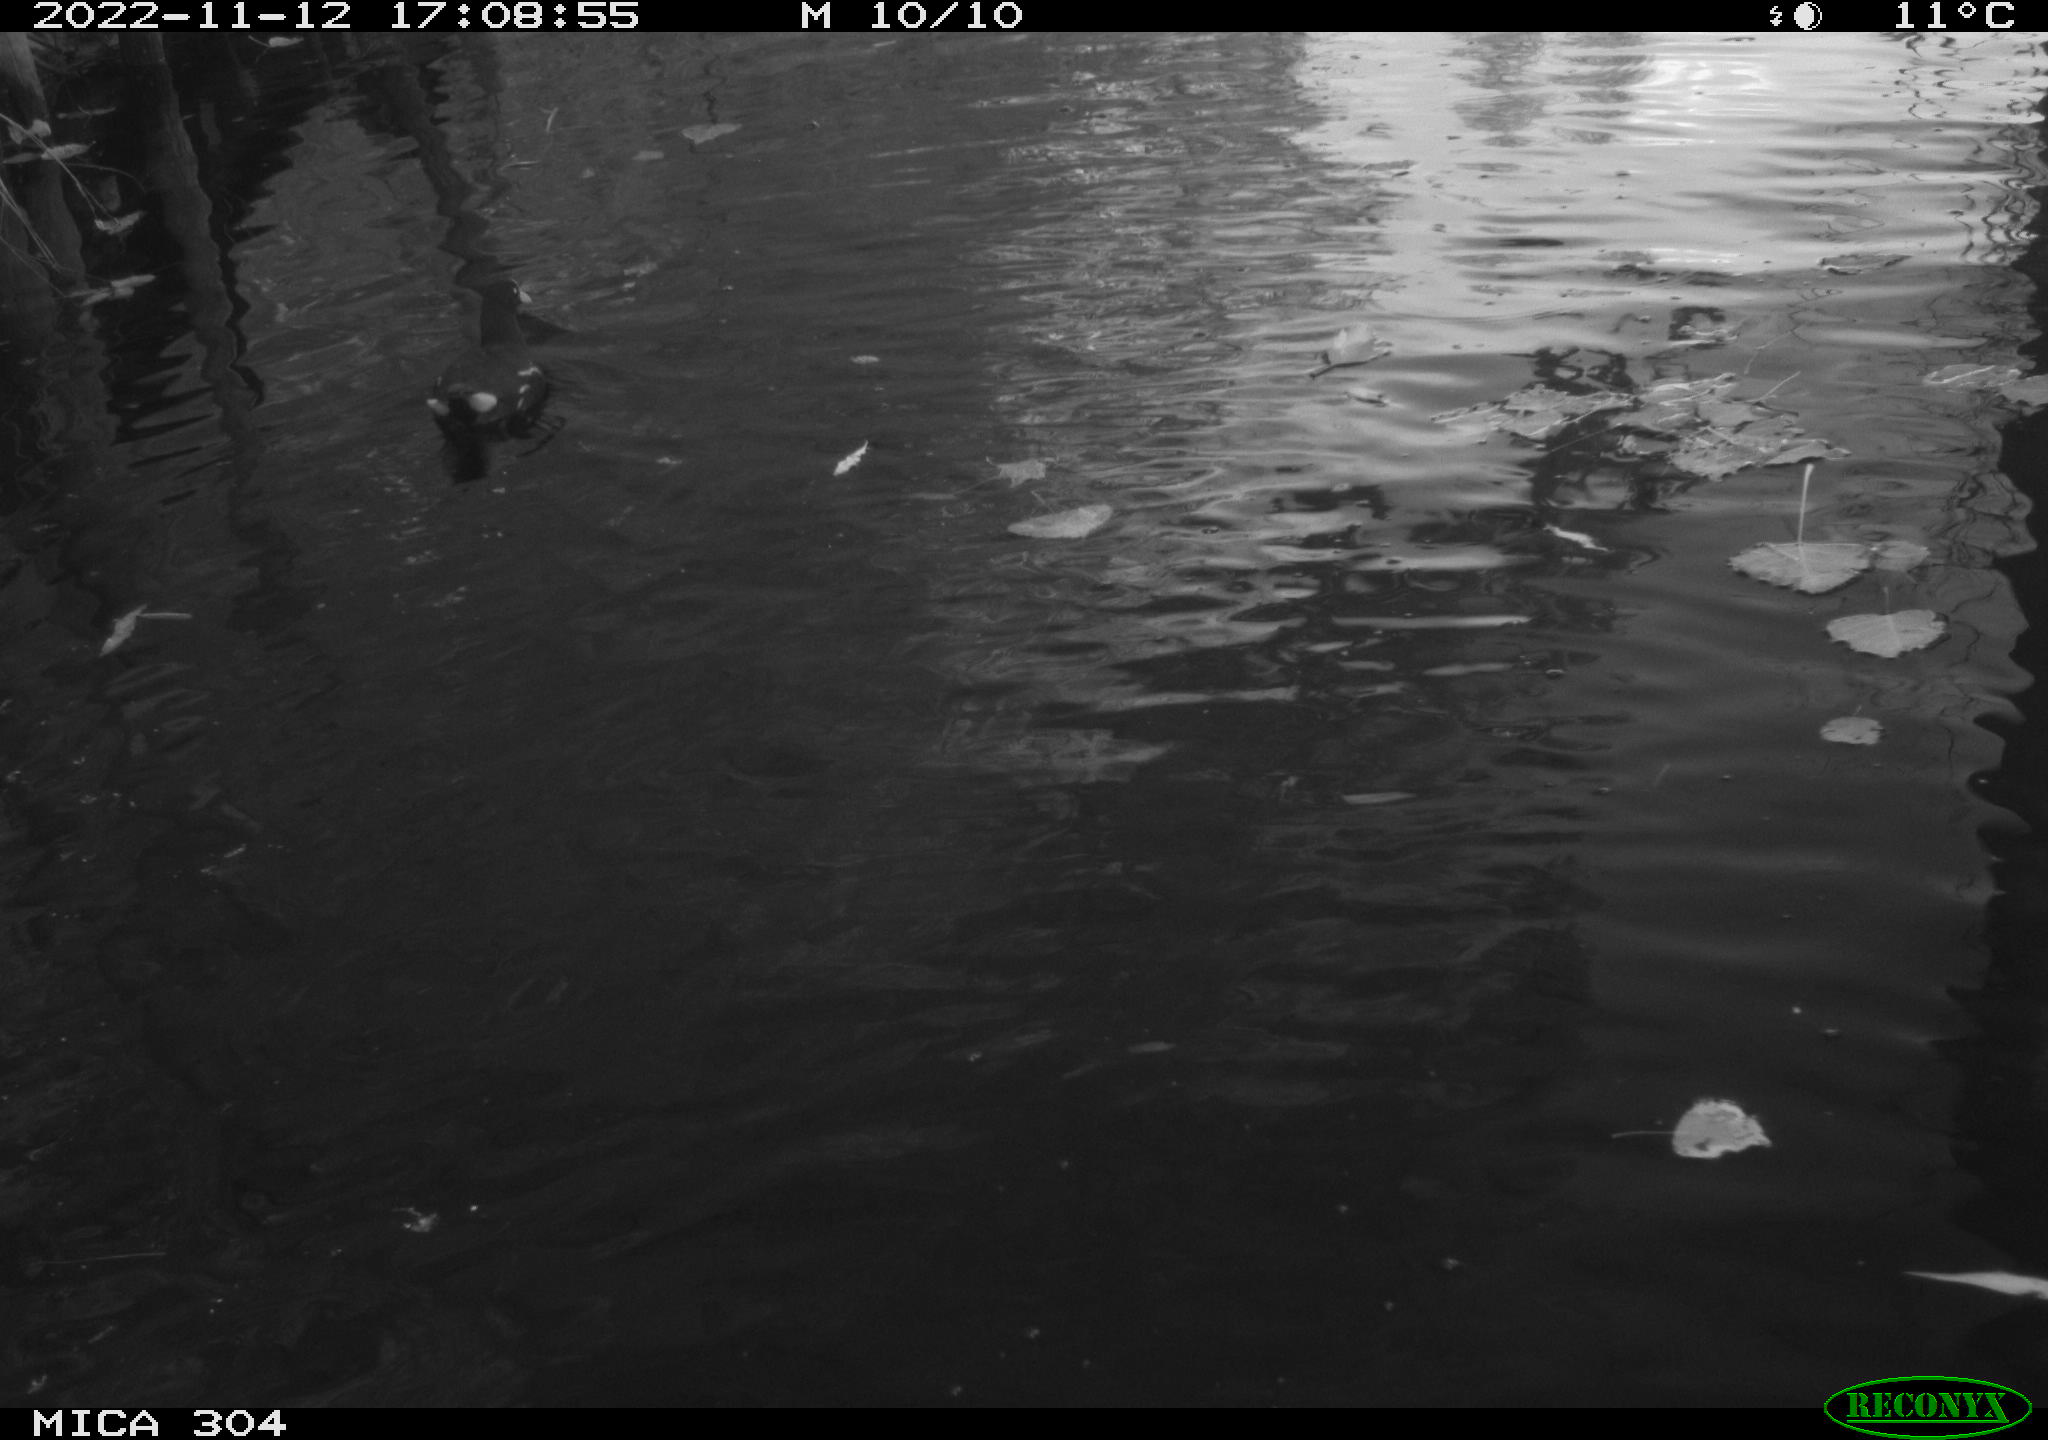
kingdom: Animalia
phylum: Chordata
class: Aves
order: Gruiformes
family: Rallidae
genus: Gallinula
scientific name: Gallinula chloropus
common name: Common moorhen
